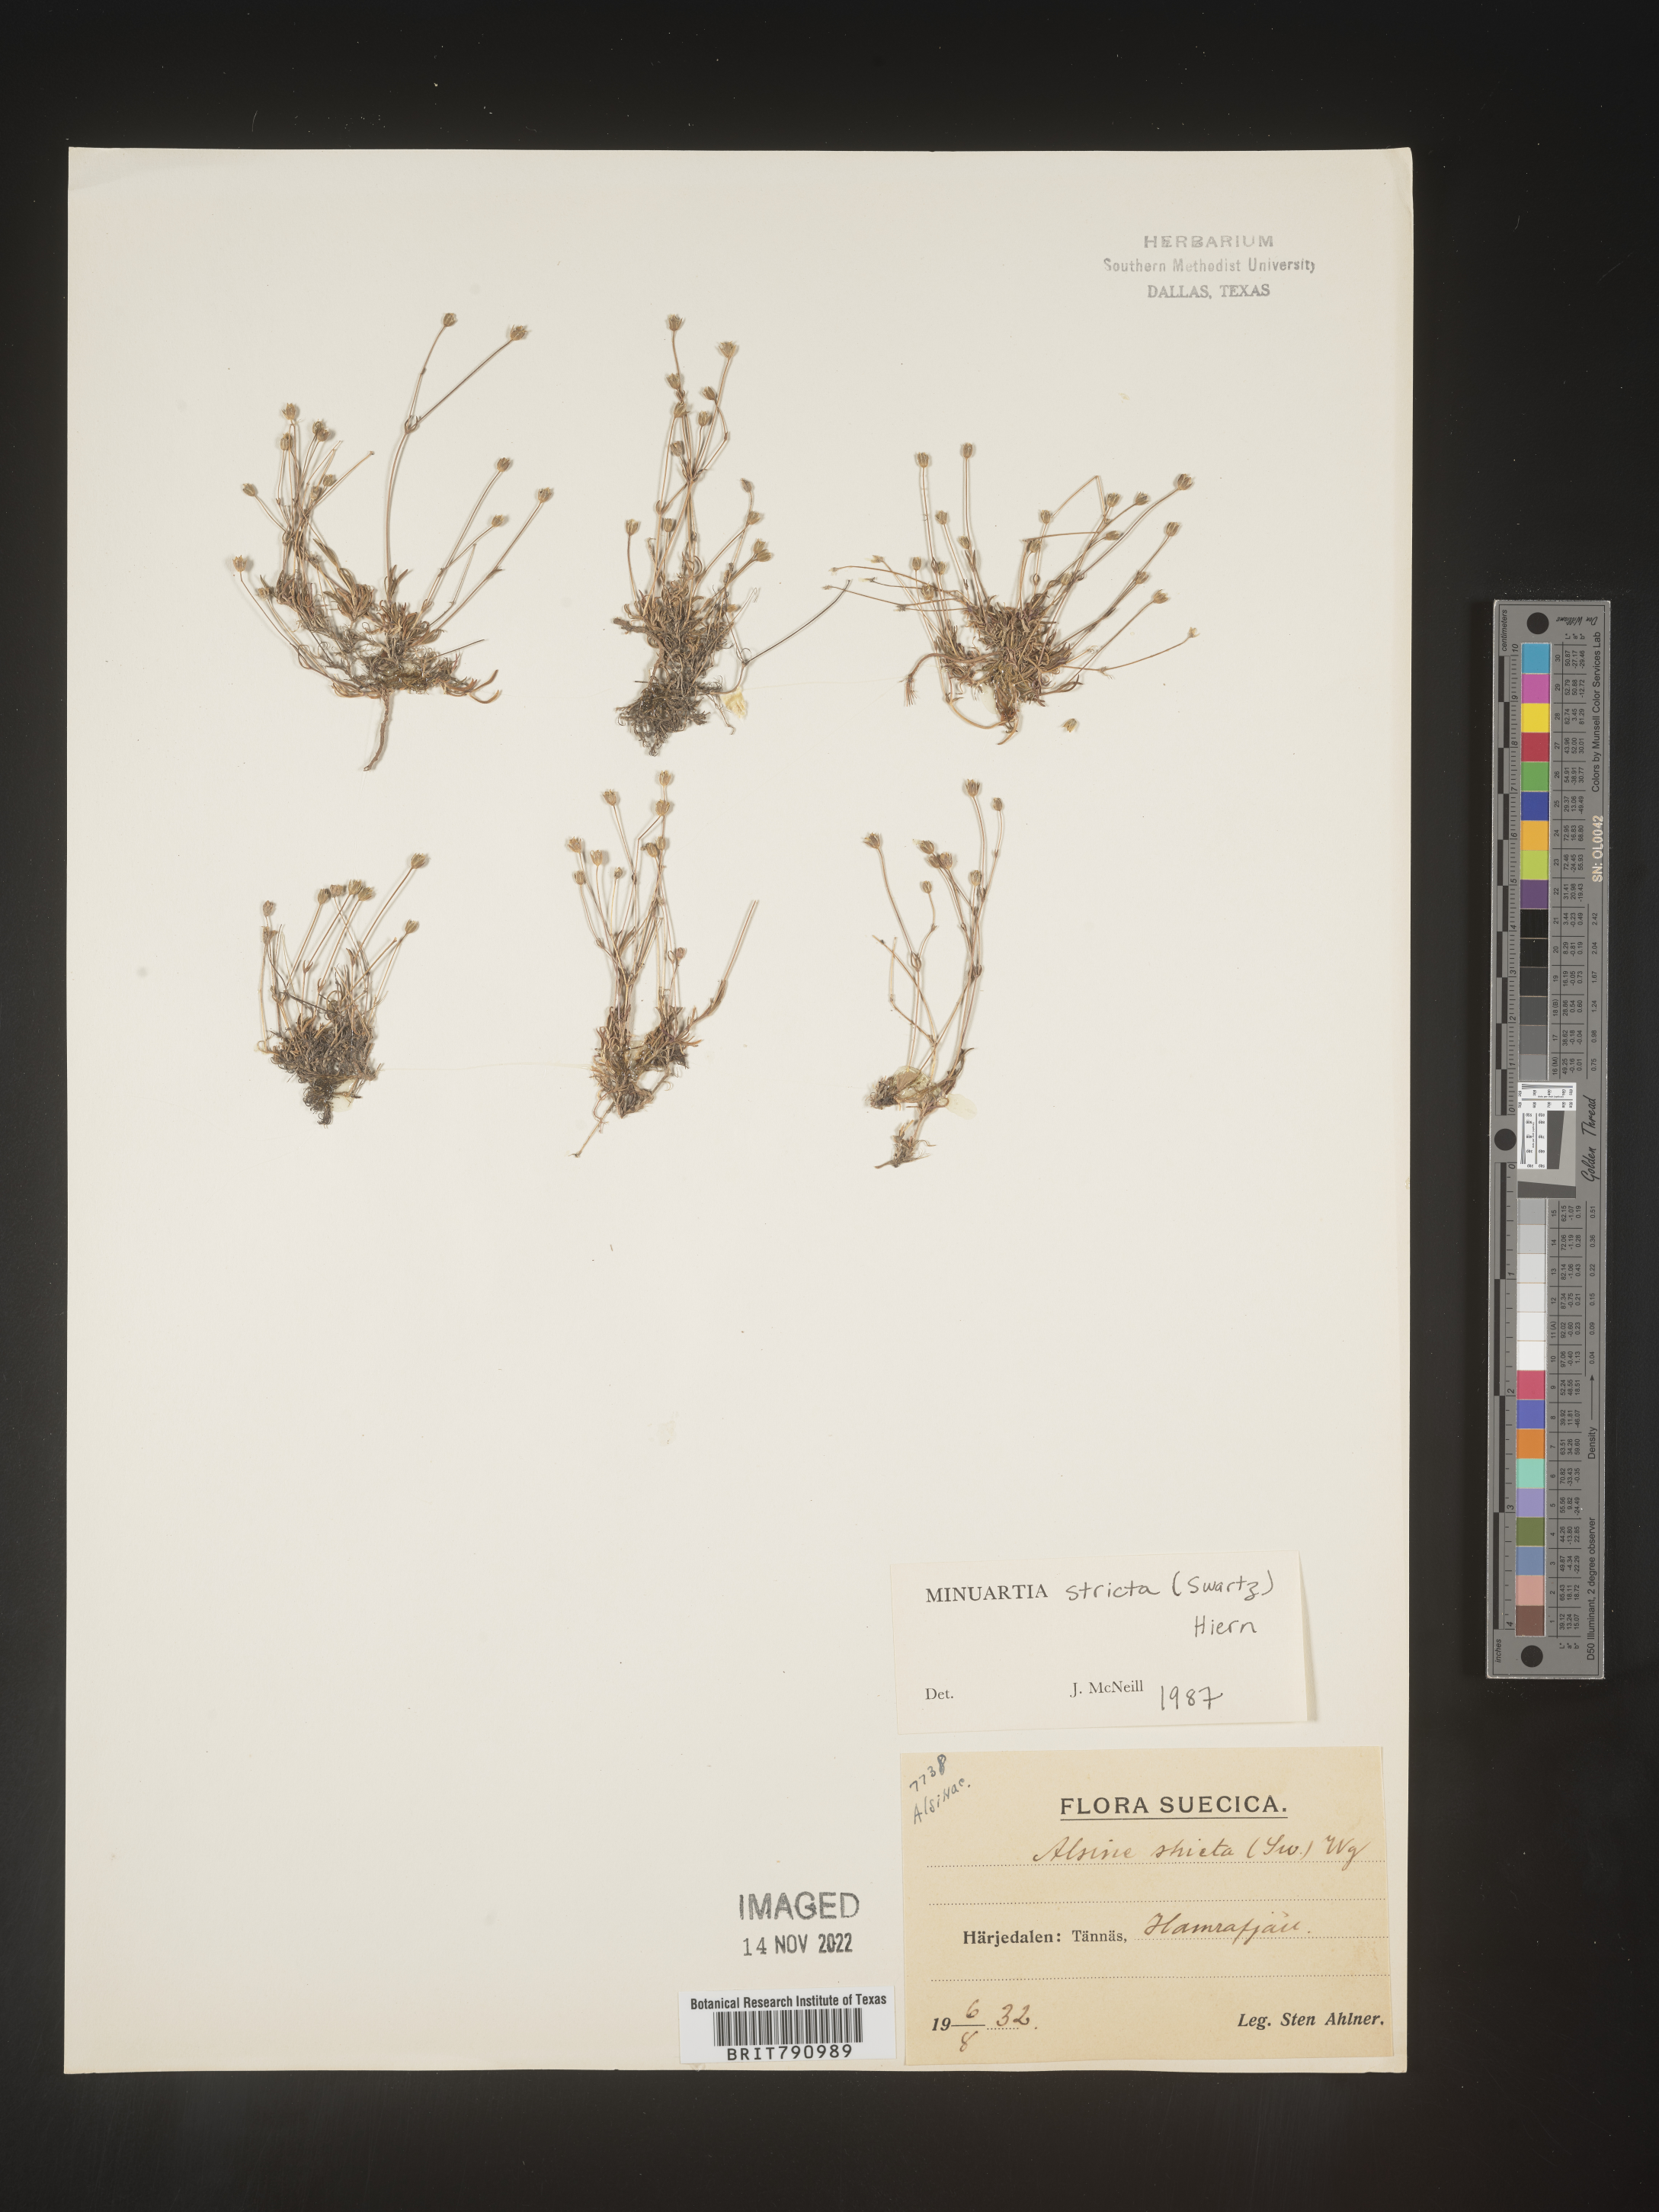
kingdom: Plantae
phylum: Tracheophyta
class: Magnoliopsida
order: Caryophyllales
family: Caryophyllaceae
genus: Minuartia
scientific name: Minuartia
